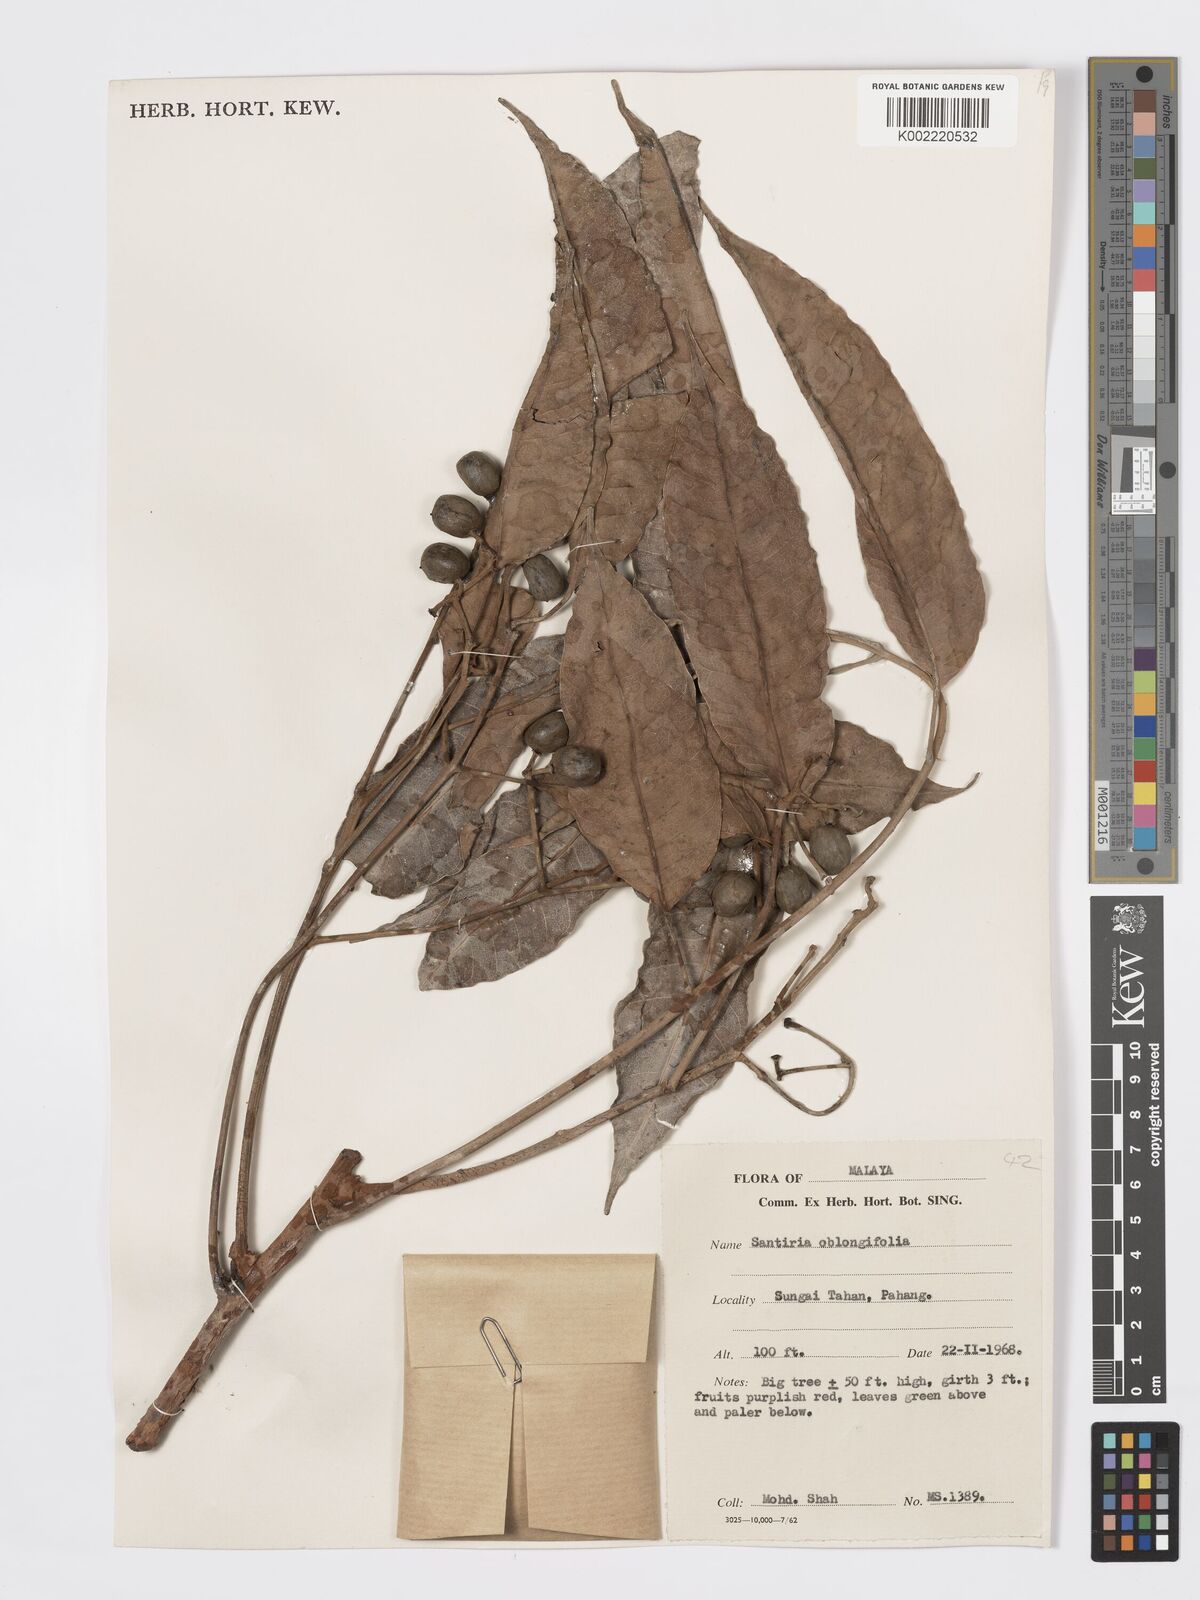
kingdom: Plantae
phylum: Tracheophyta
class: Magnoliopsida
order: Sapindales
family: Burseraceae
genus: Santiria
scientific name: Santiria oblongifolia
